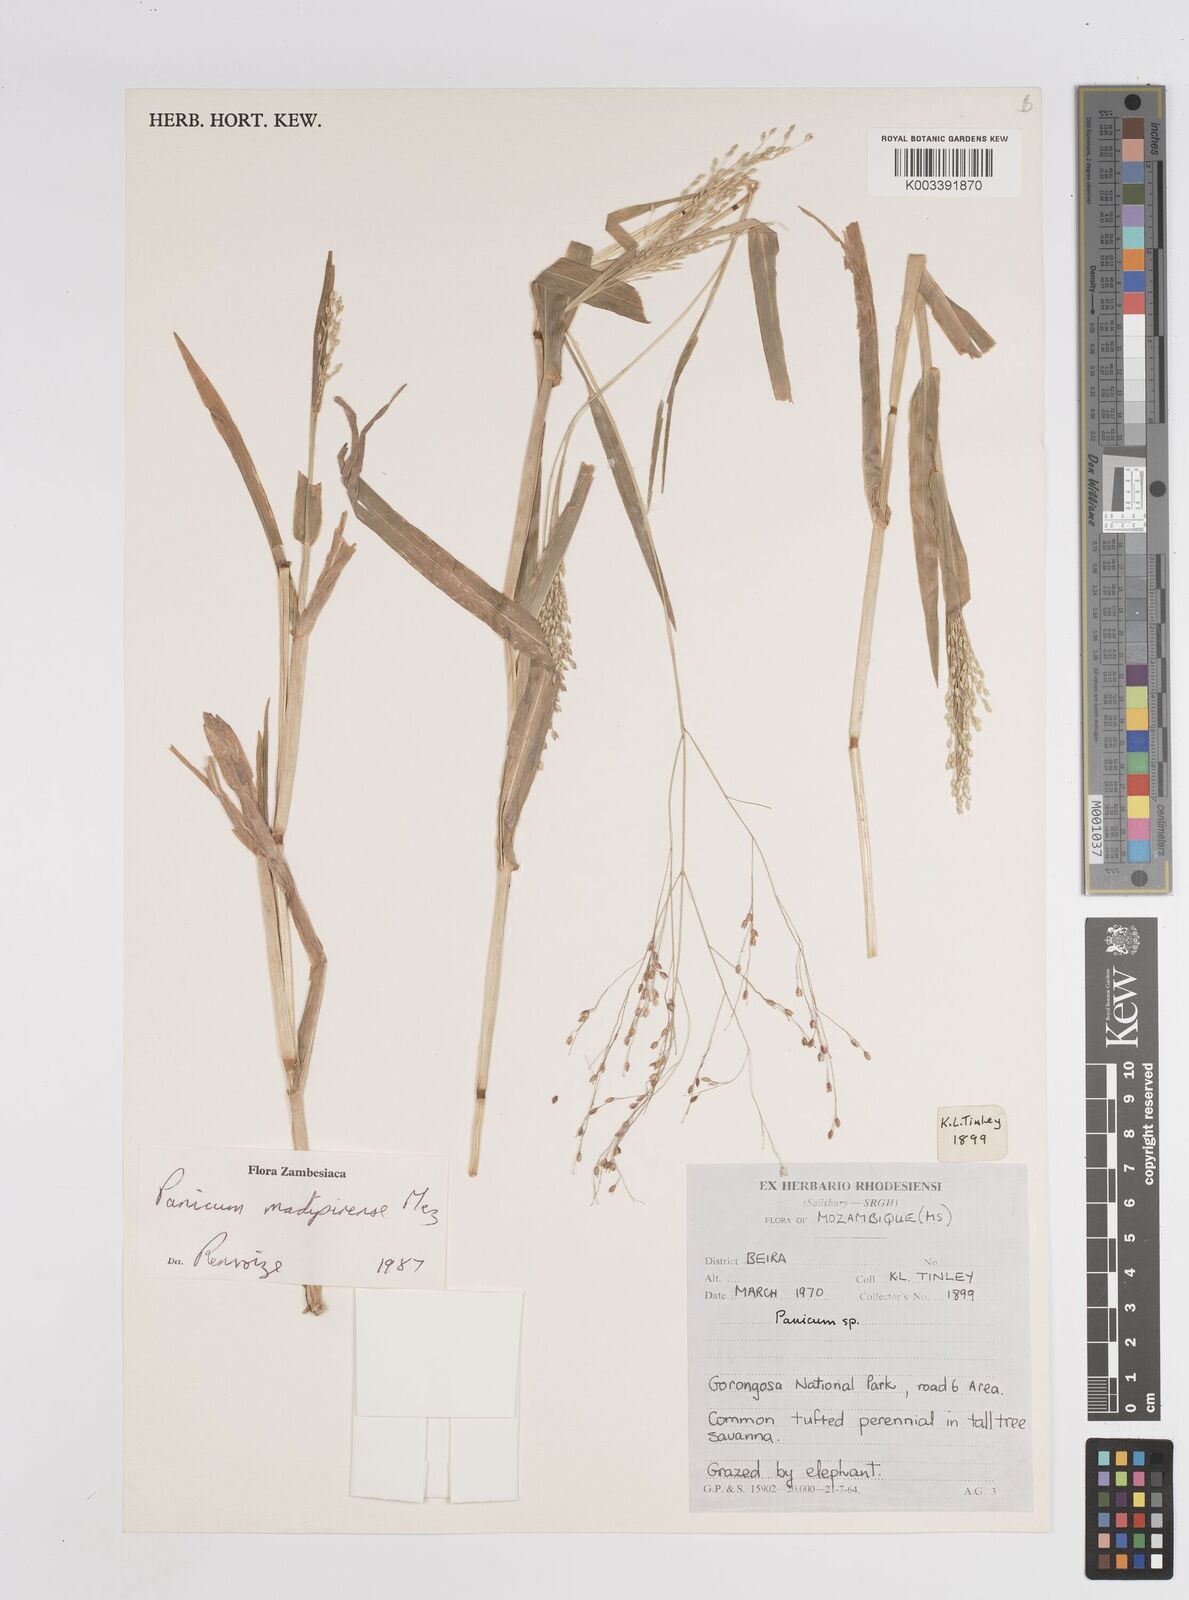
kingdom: Plantae
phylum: Tracheophyta
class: Liliopsida
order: Poales
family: Poaceae
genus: Panicum
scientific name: Panicum madipirense
